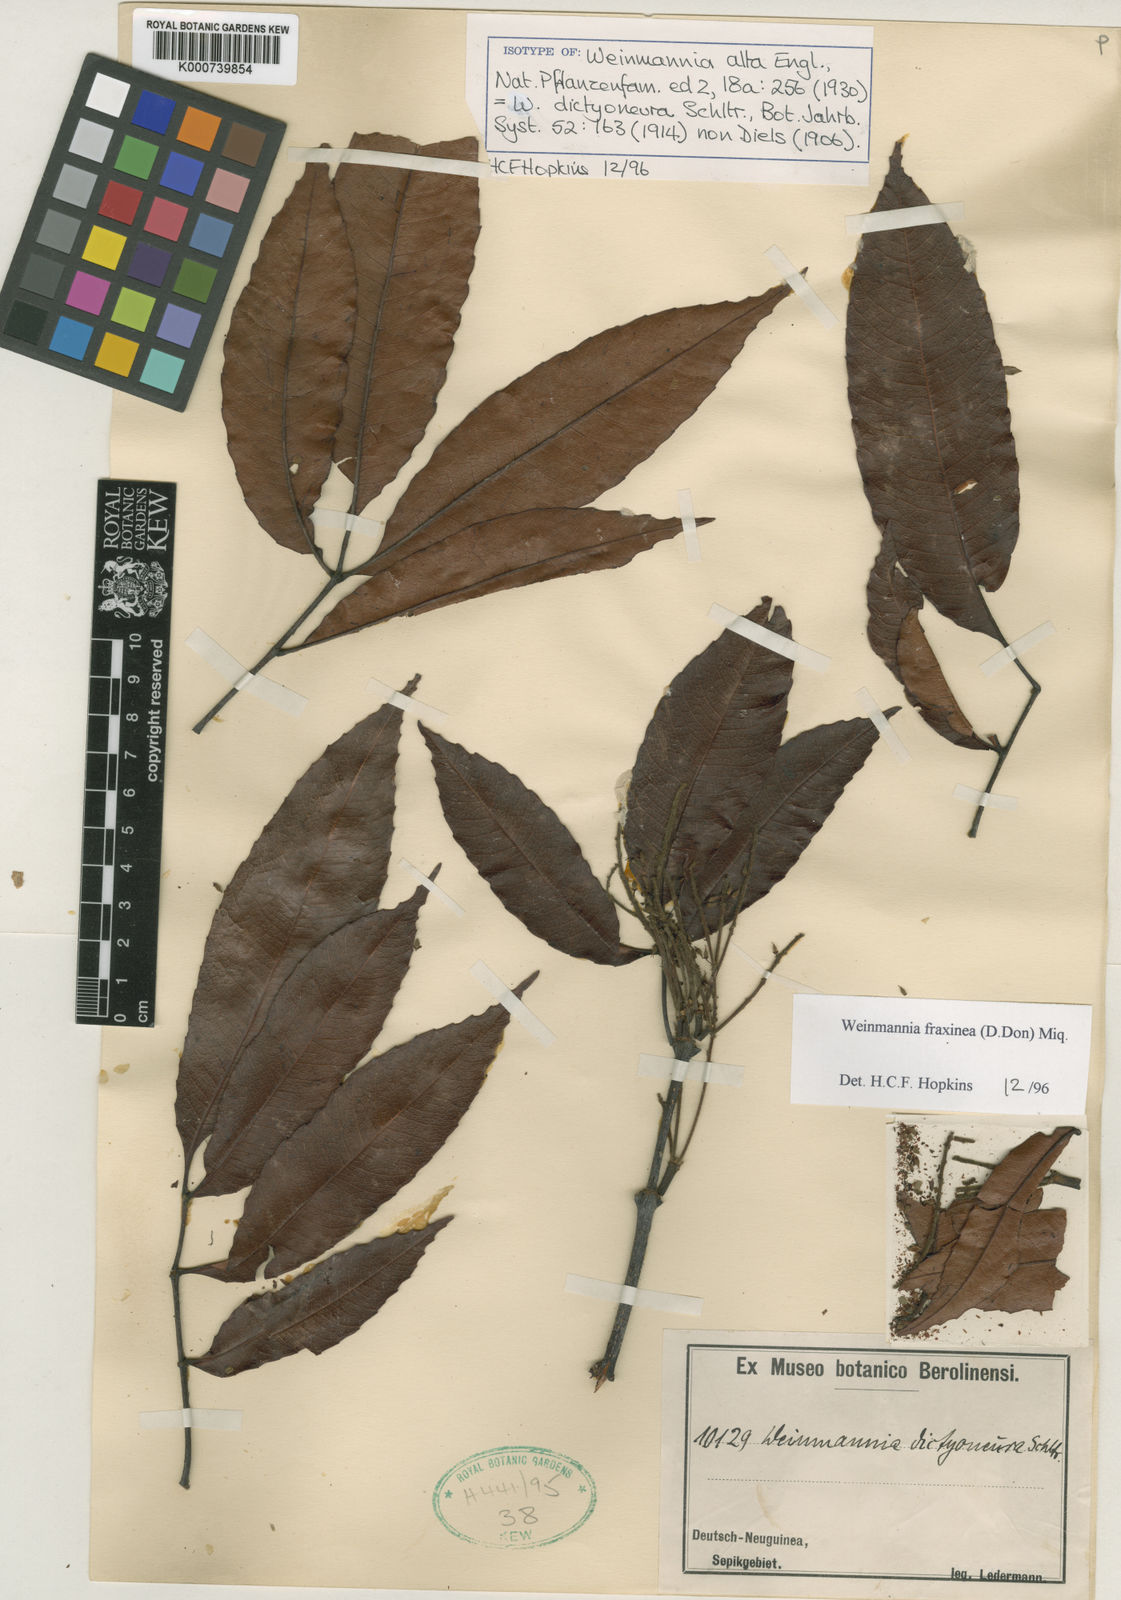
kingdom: Plantae
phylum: Tracheophyta
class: Magnoliopsida
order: Oxalidales
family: Cunoniaceae
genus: Pterophylla
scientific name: Pterophylla fraxinea
